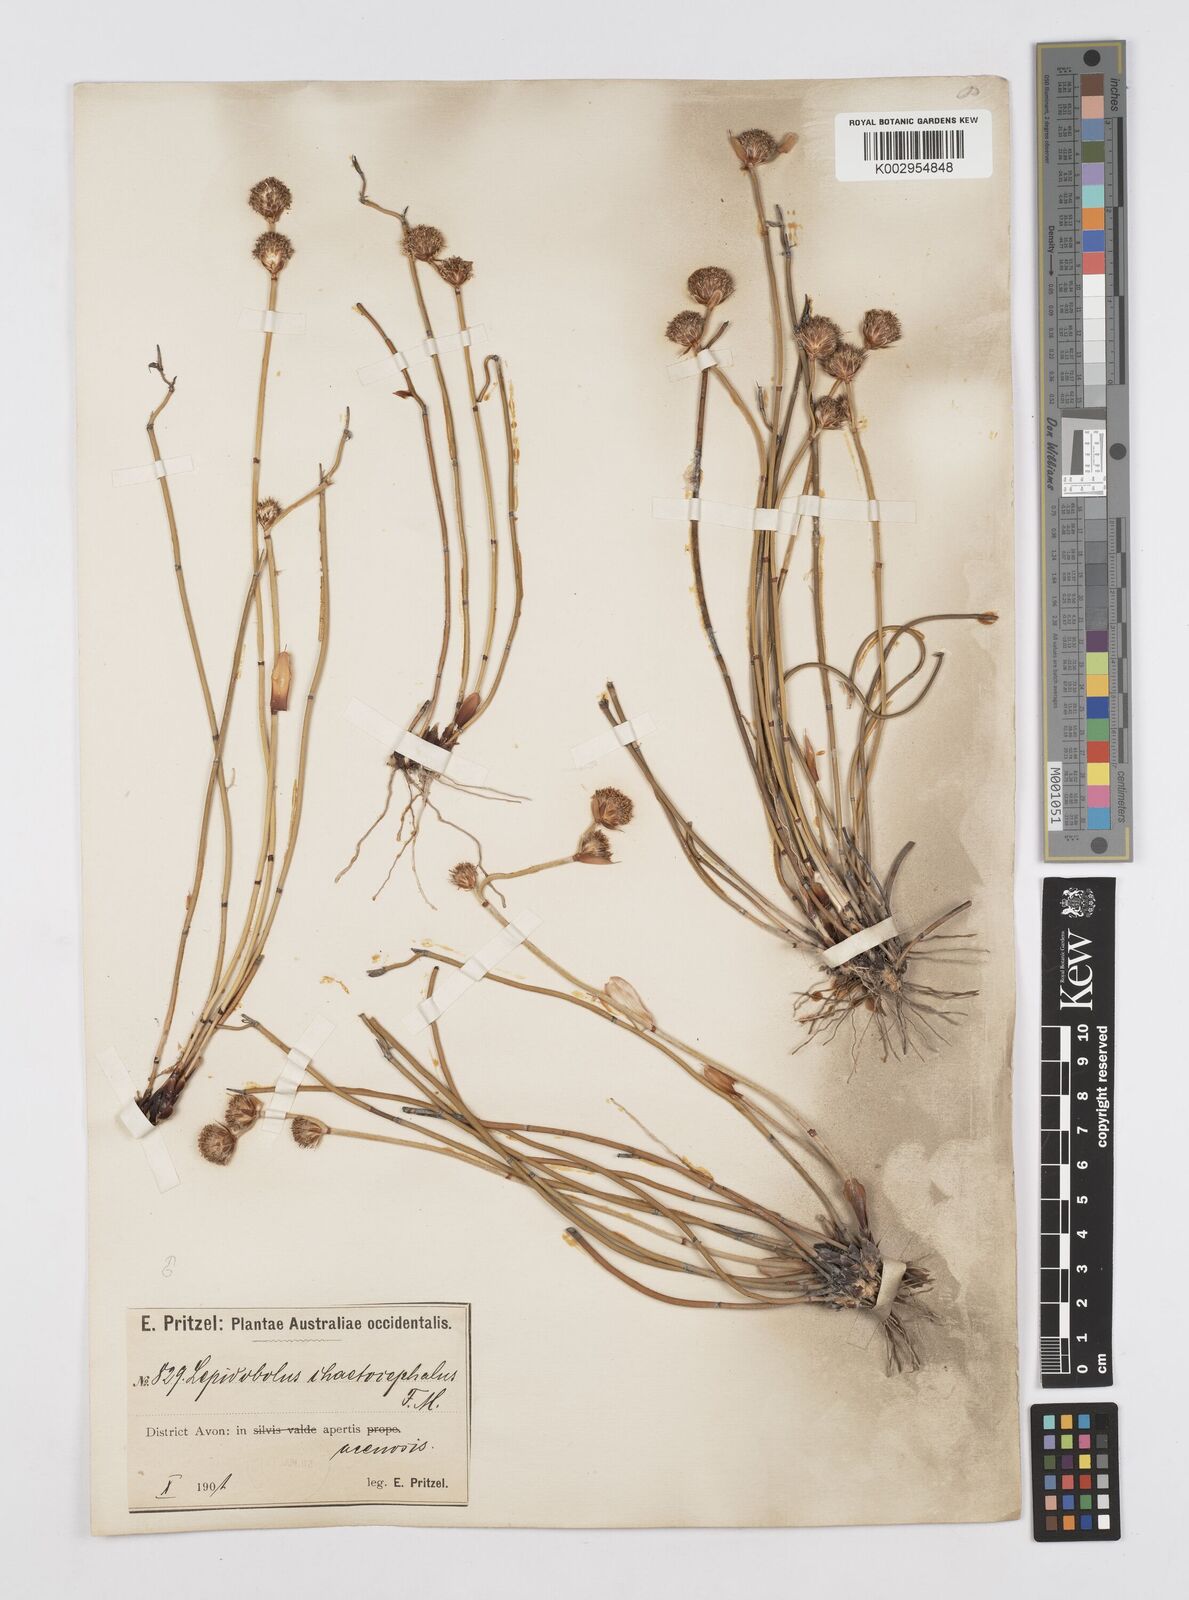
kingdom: Plantae
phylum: Tracheophyta
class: Liliopsida
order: Poales
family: Restionaceae
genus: Lepidobolus
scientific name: Lepidobolus chaetocephalus
